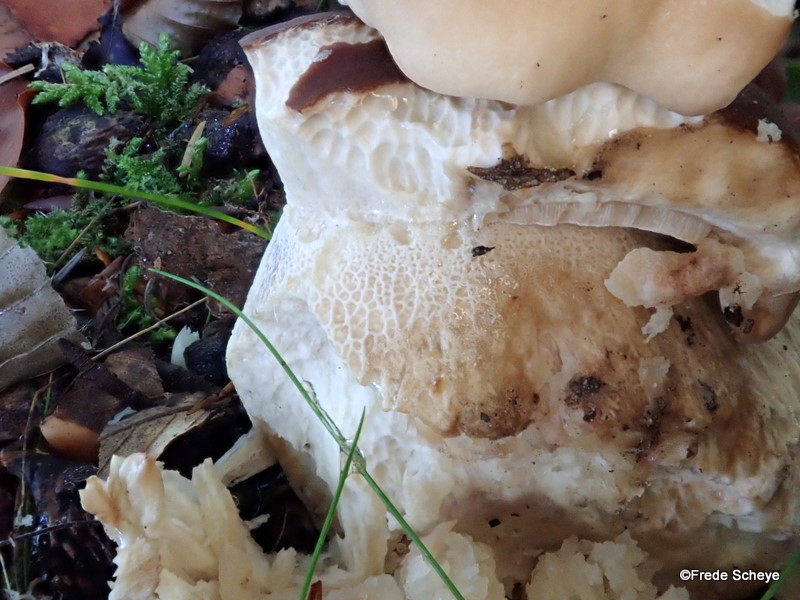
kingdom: Fungi
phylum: Basidiomycota
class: Agaricomycetes
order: Boletales
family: Boletaceae
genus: Boletus
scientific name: Boletus reticulatus
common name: sommer-rørhat
